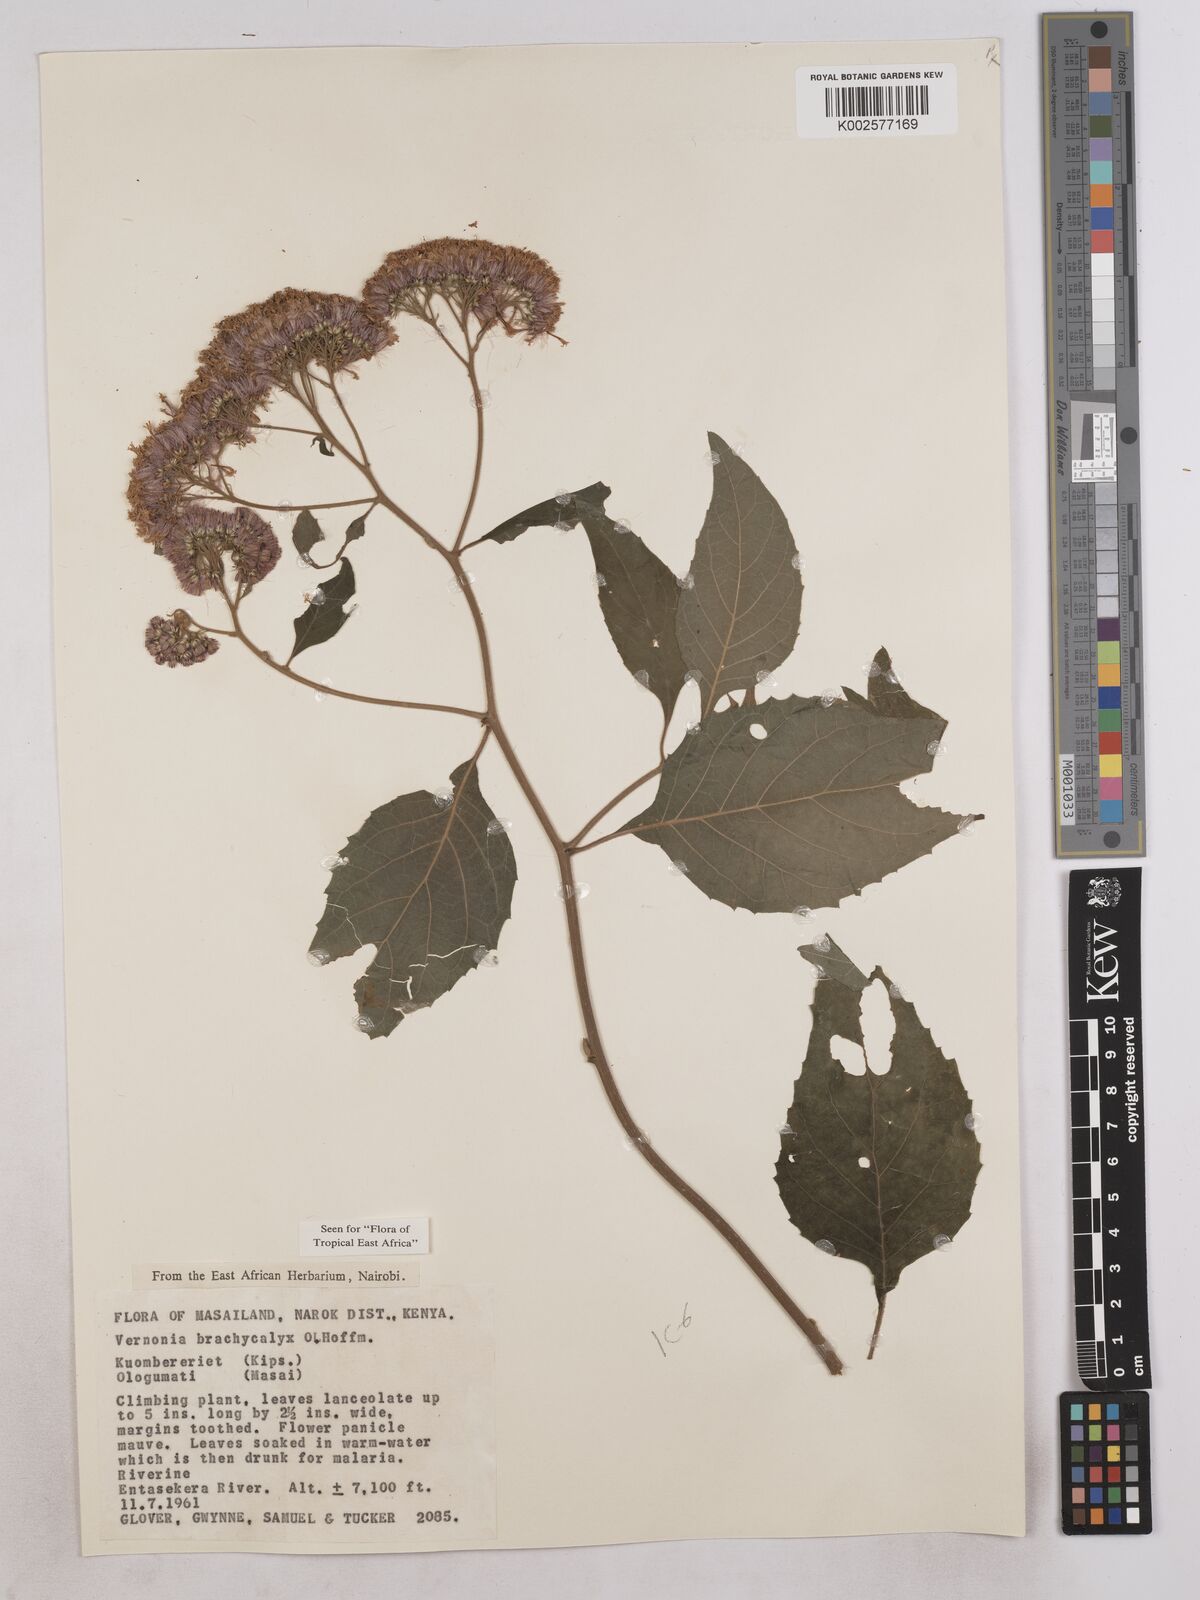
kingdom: Plantae
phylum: Tracheophyta
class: Magnoliopsida
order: Asterales
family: Asteraceae
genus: Hoffmannanthus
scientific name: Hoffmannanthus abbotianus
